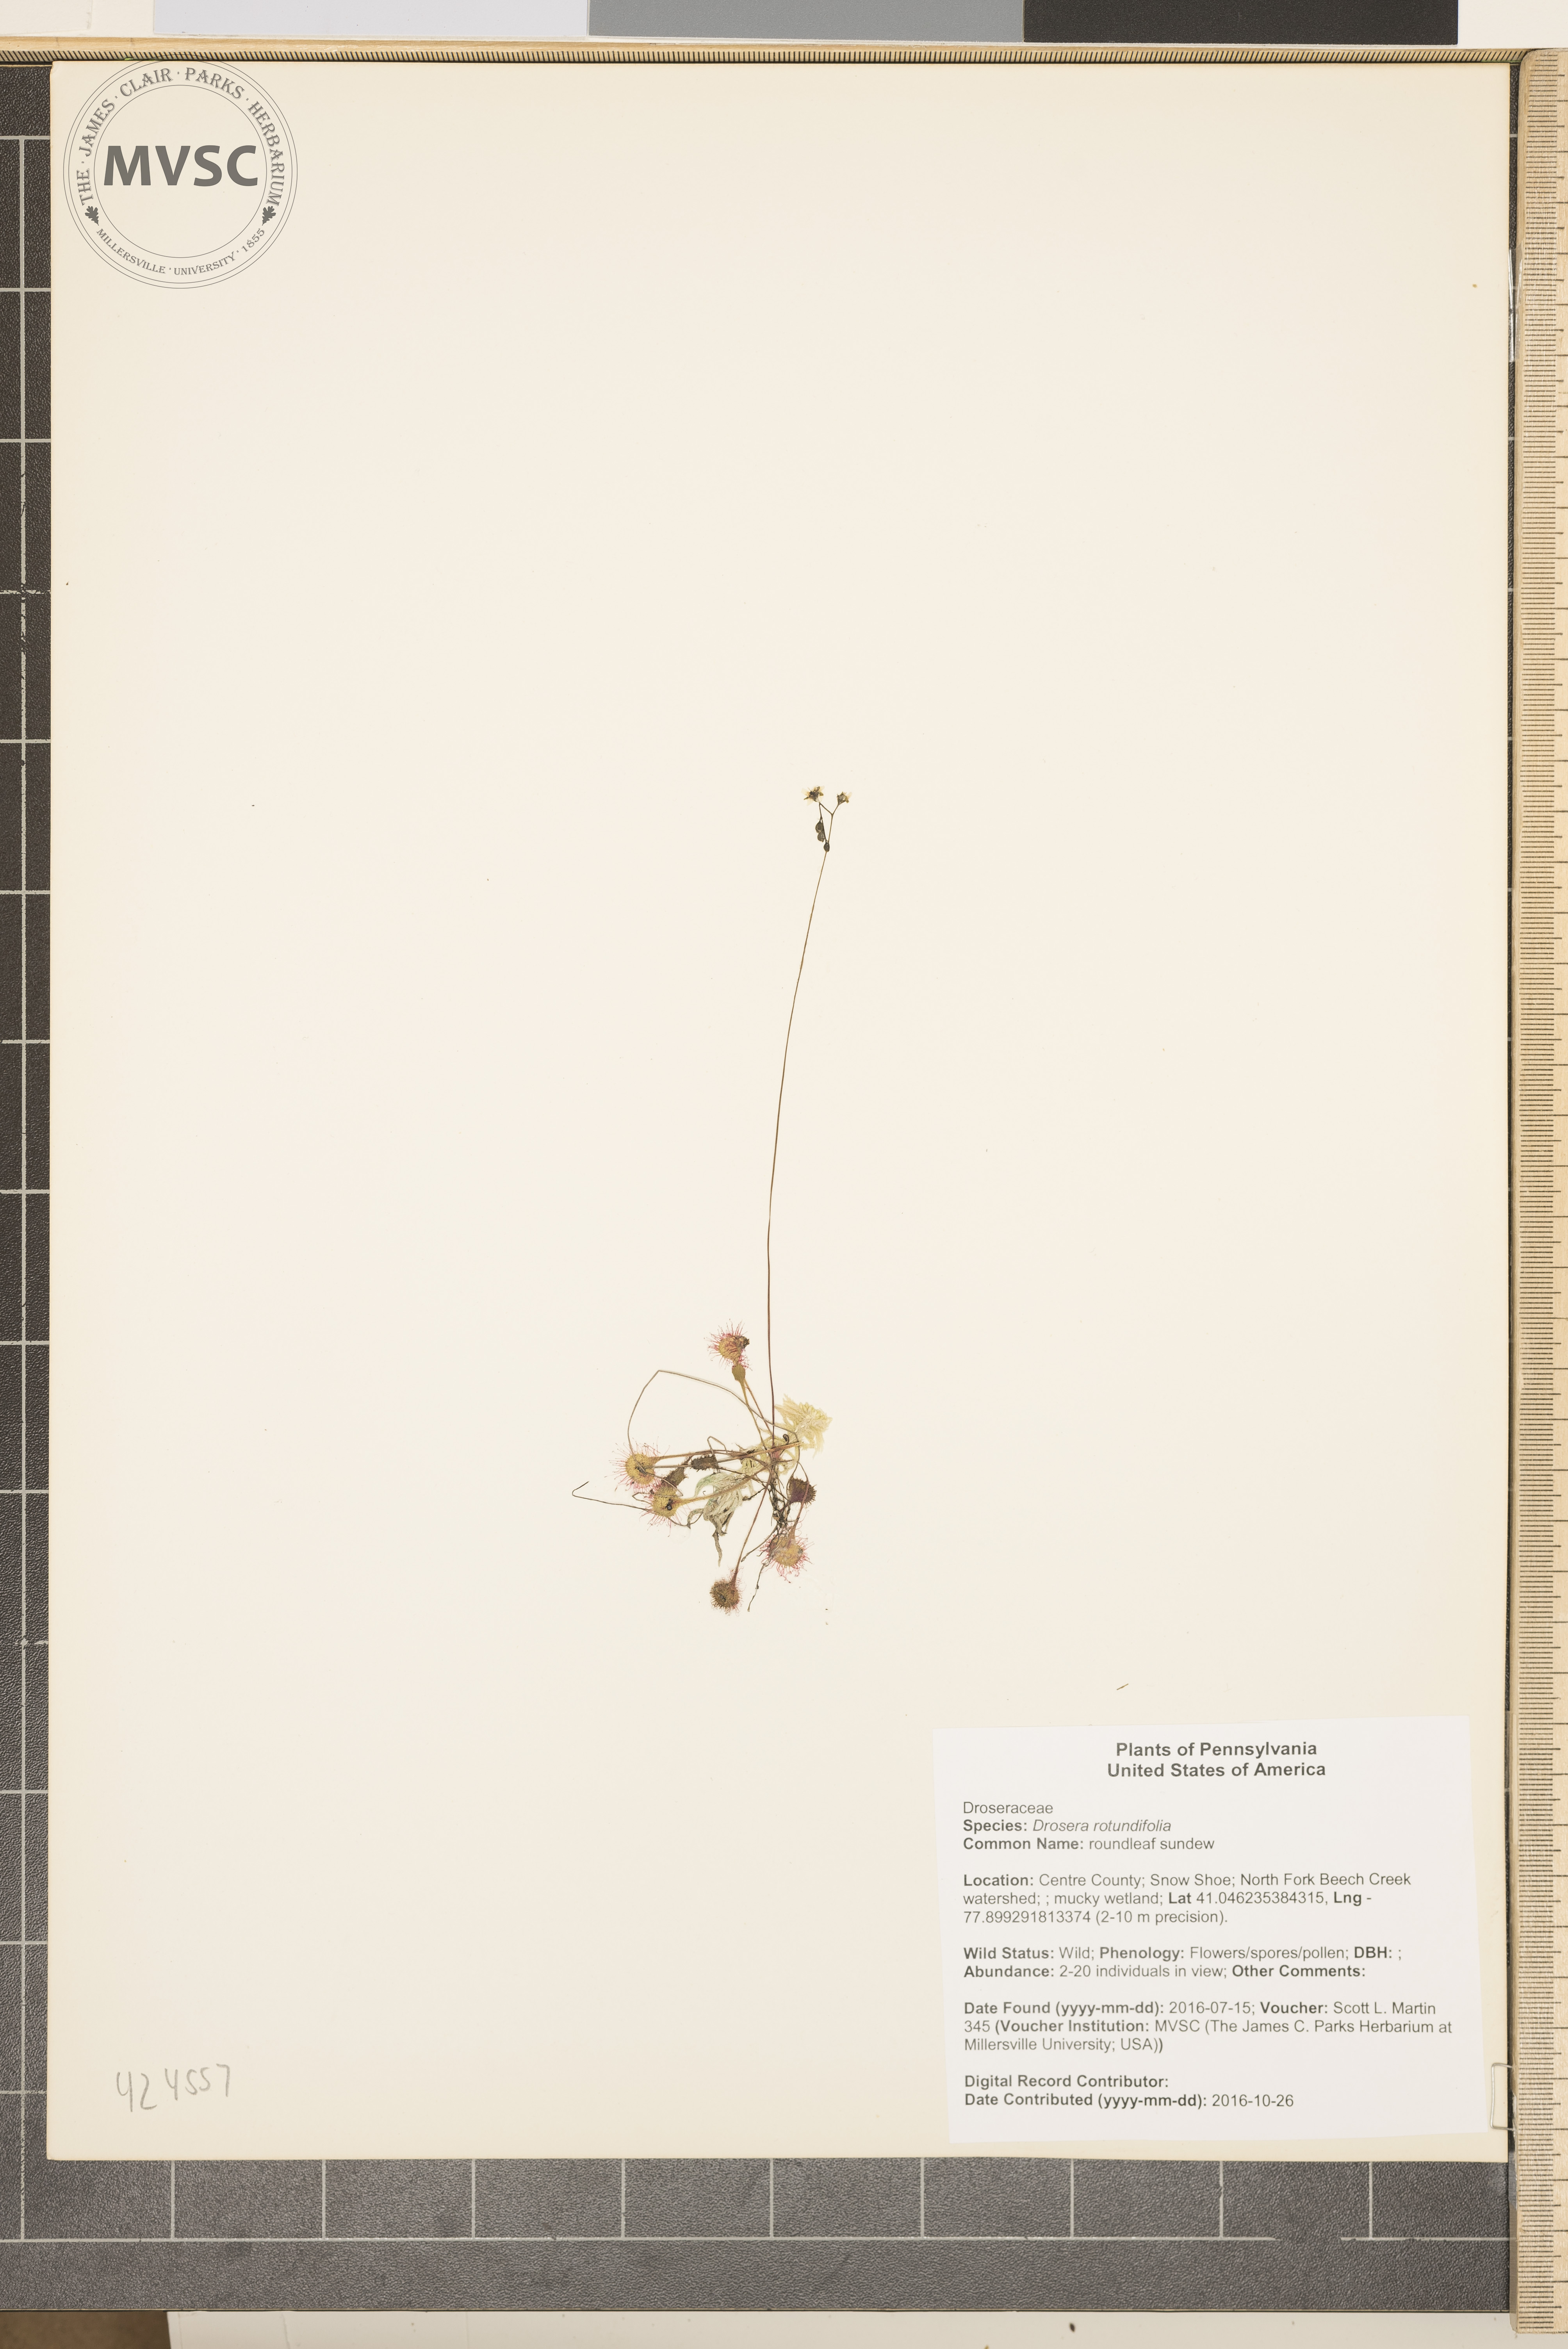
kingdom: Plantae
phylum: Tracheophyta
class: Magnoliopsida
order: Caryophyllales
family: Droseraceae
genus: Drosera
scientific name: Drosera rotundifolia
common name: roundleaf sundew
